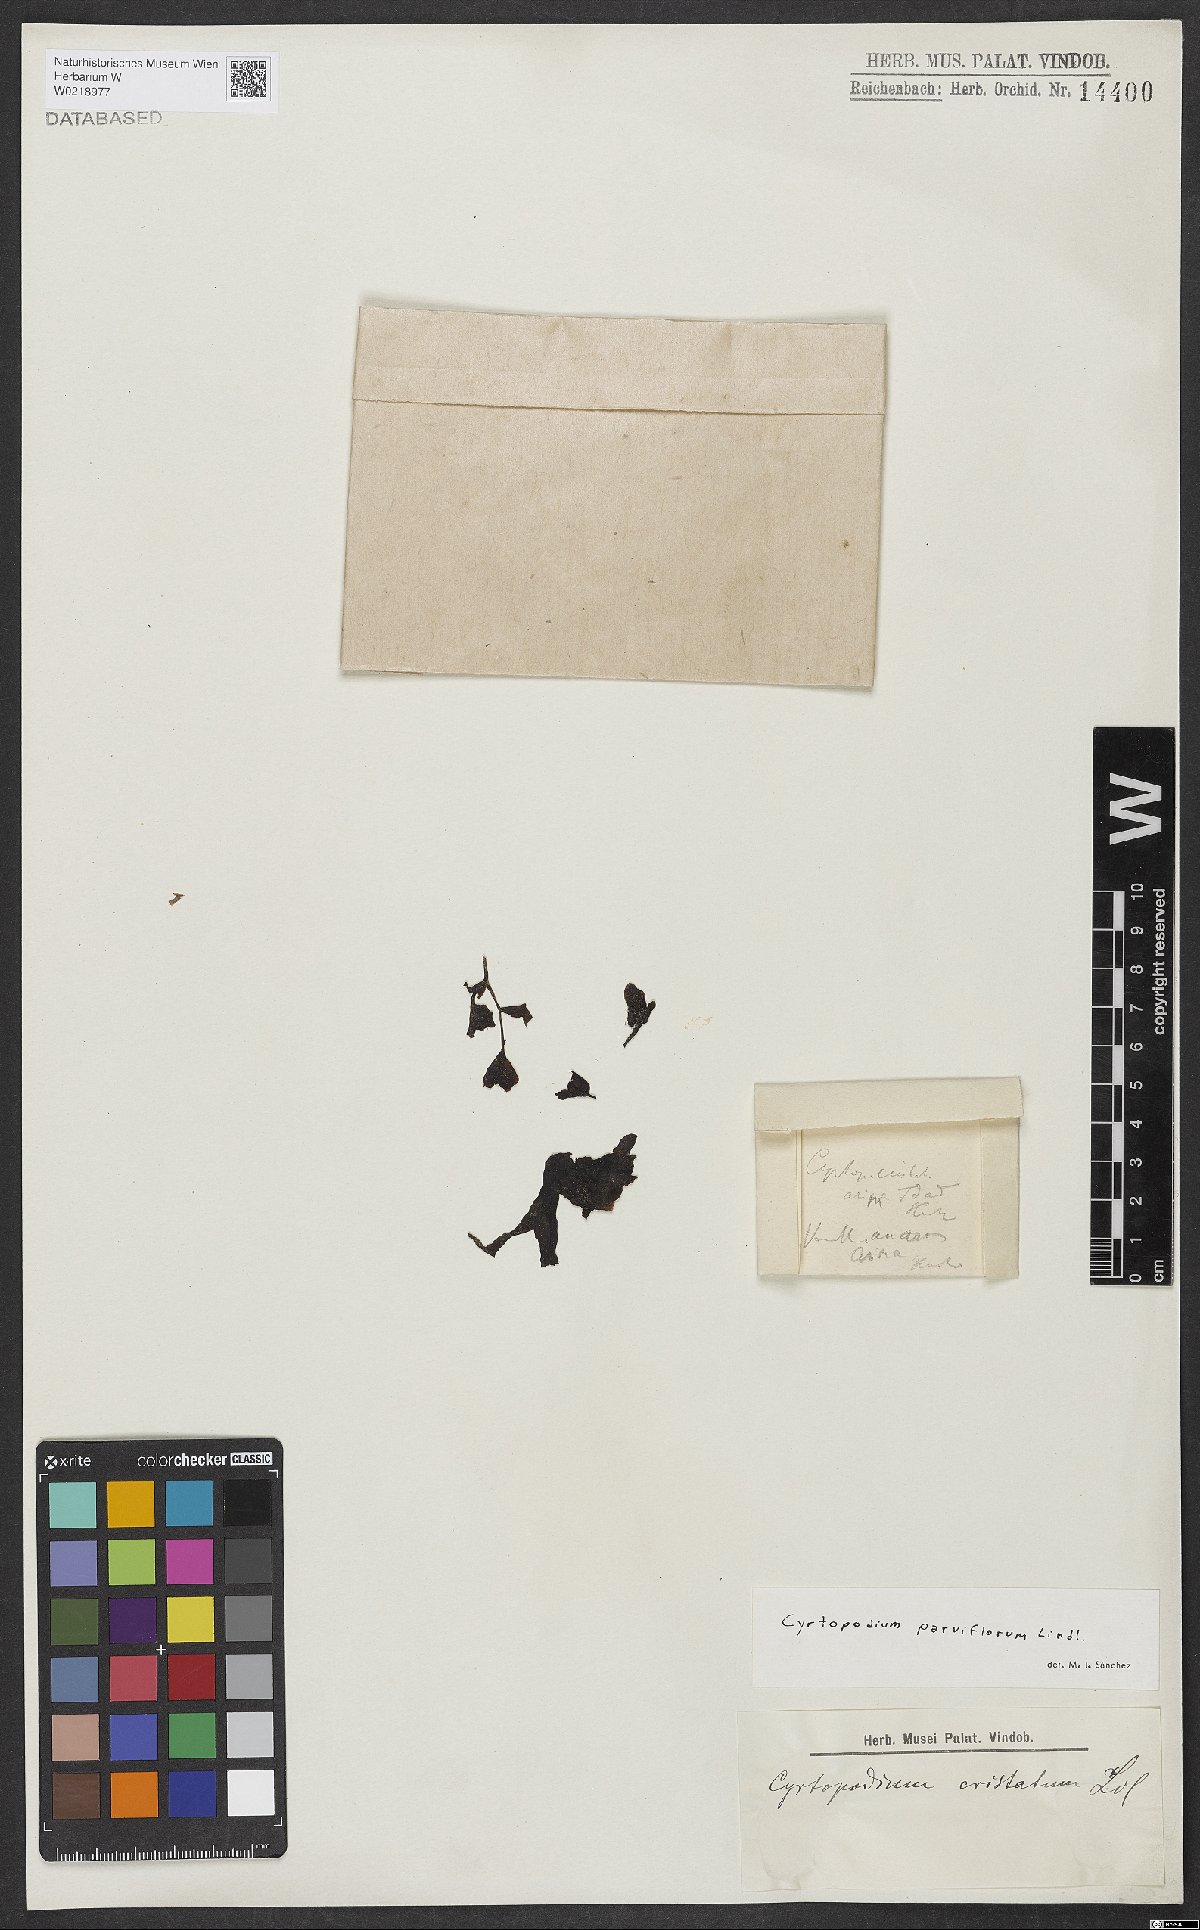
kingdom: Plantae
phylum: Tracheophyta
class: Liliopsida
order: Asparagales
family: Orchidaceae
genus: Cyrtopodium
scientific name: Cyrtopodium parviflorum
